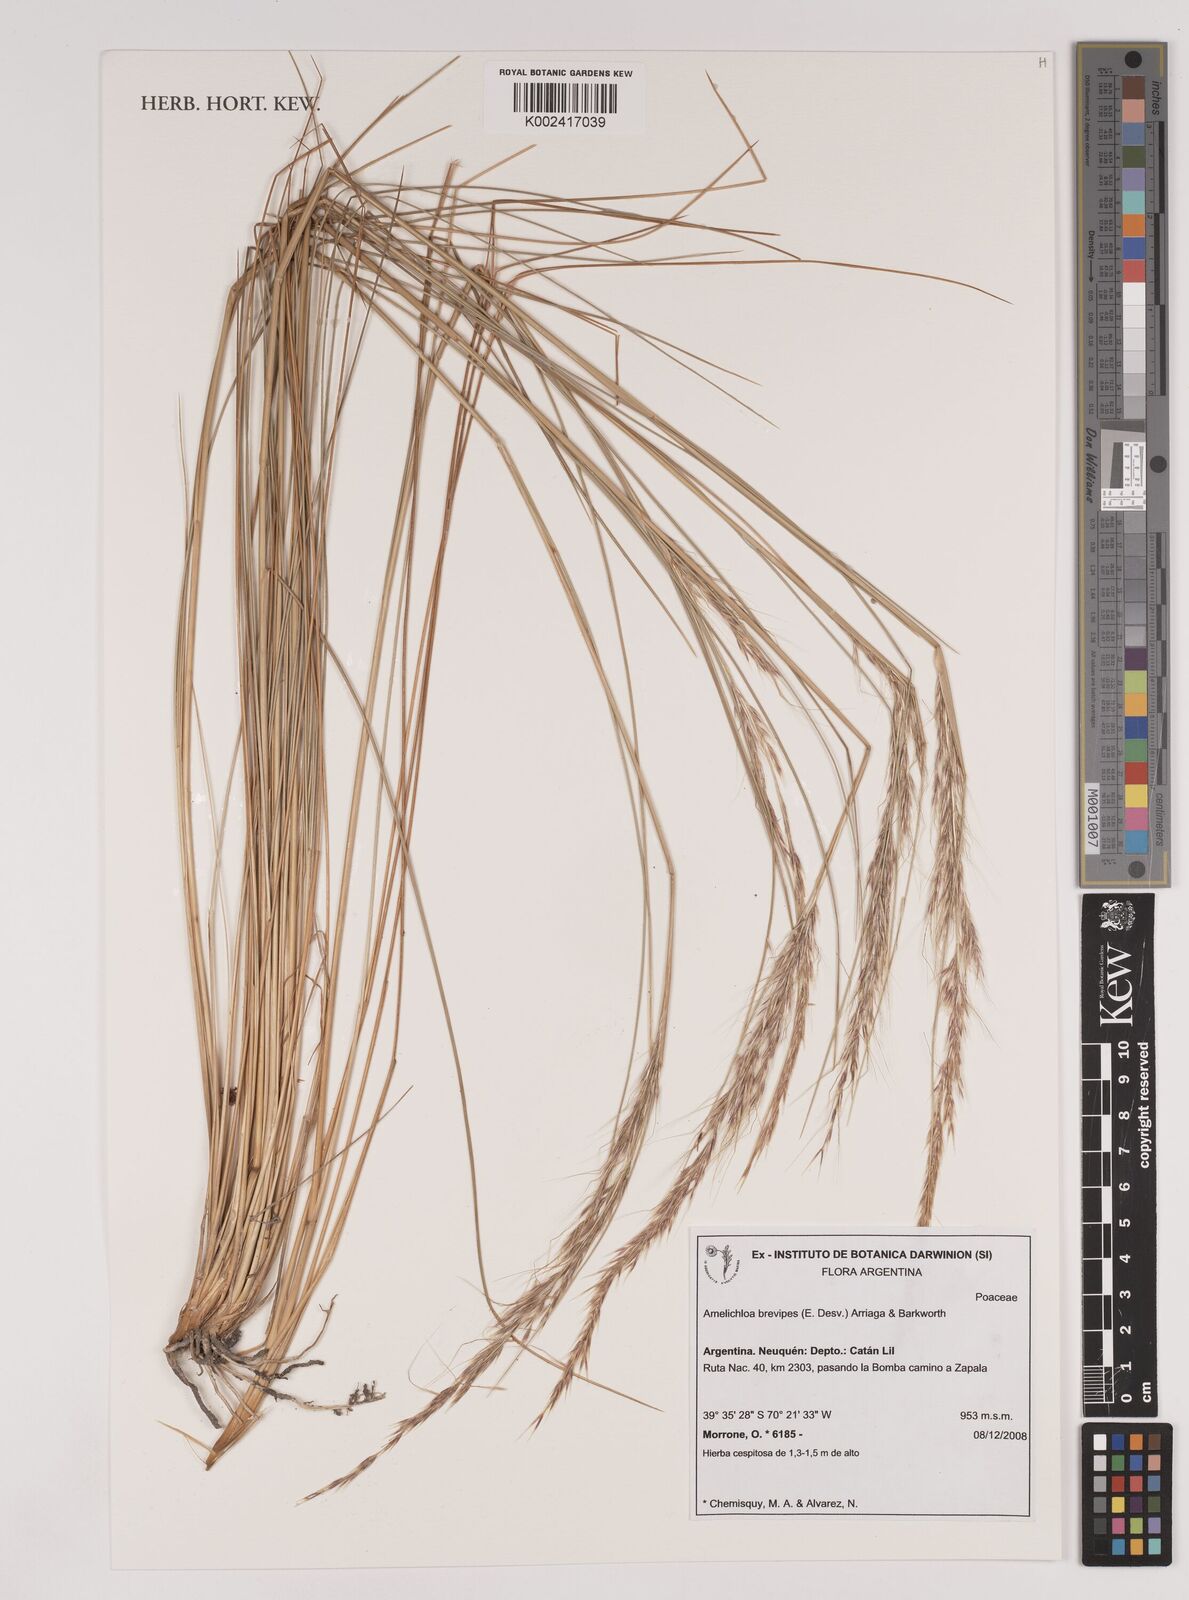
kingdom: Plantae
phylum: Tracheophyta
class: Liliopsida
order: Poales
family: Poaceae
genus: Amelichloa
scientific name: Amelichloa brevipes
